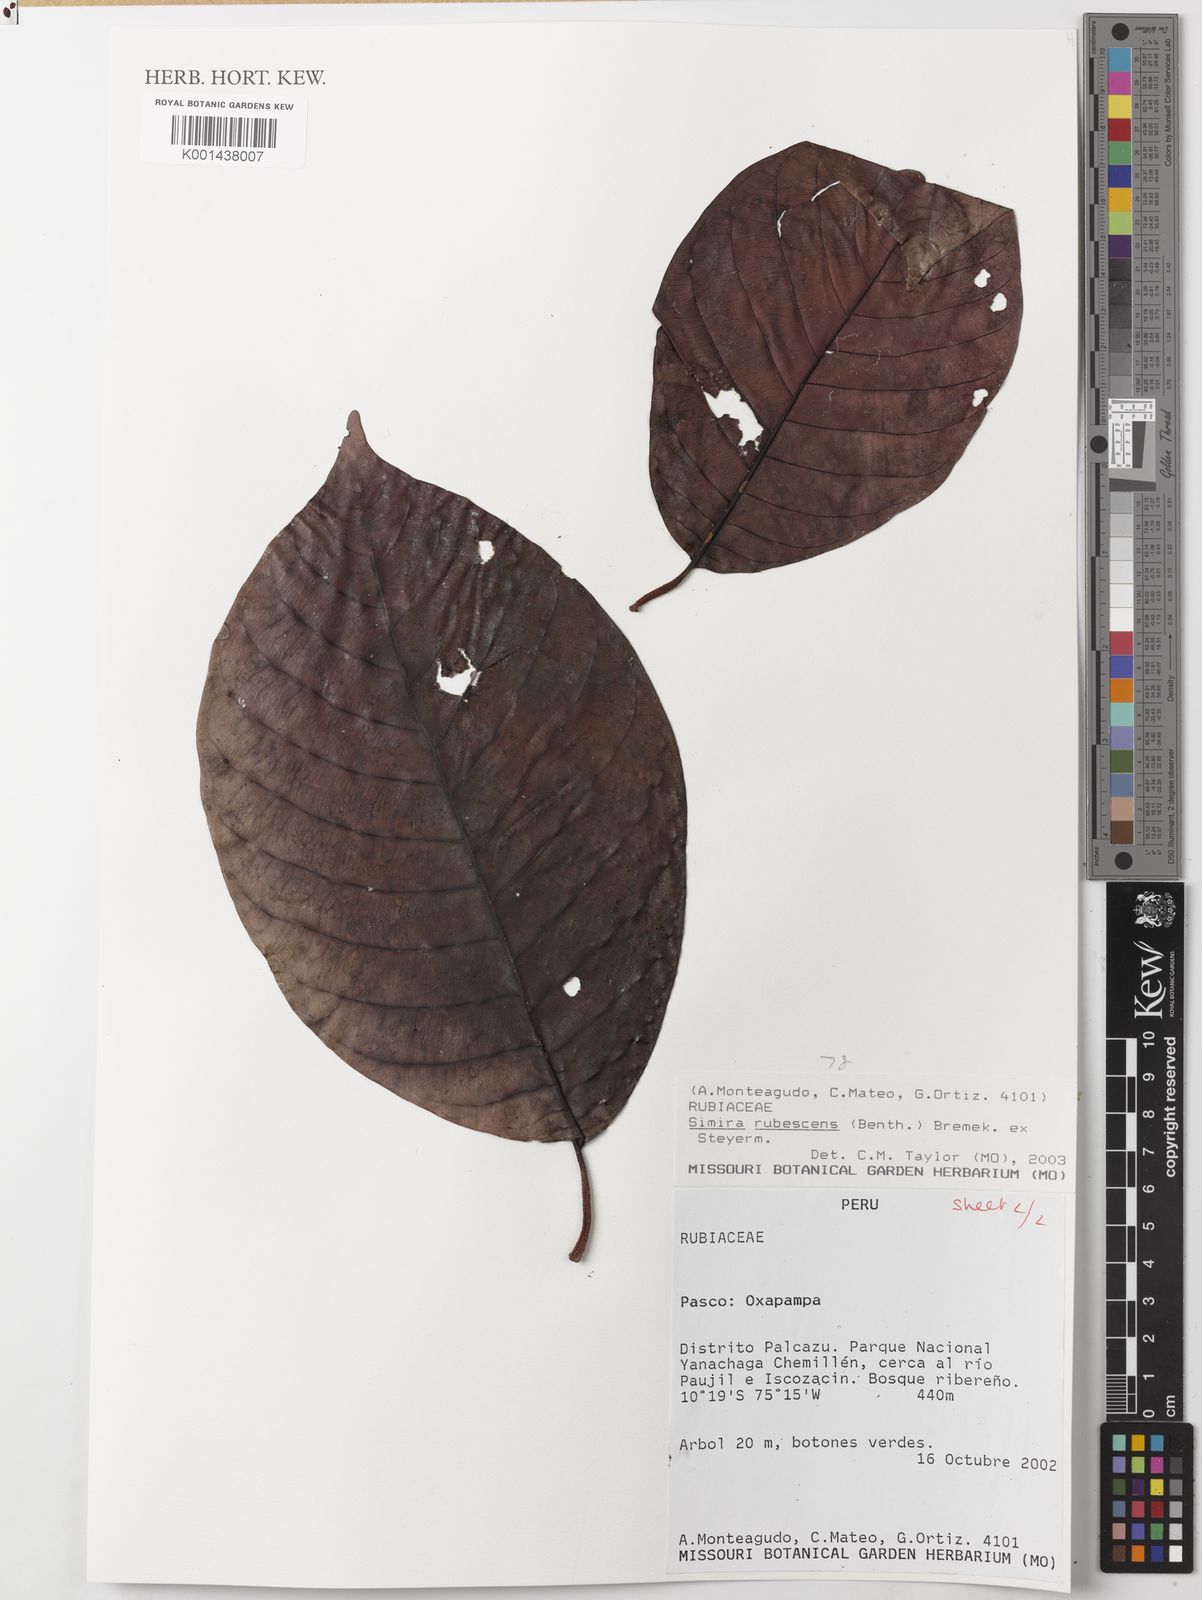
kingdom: Plantae
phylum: Tracheophyta
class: Magnoliopsida
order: Gentianales
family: Rubiaceae
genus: Simira
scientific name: Simira rubescens
